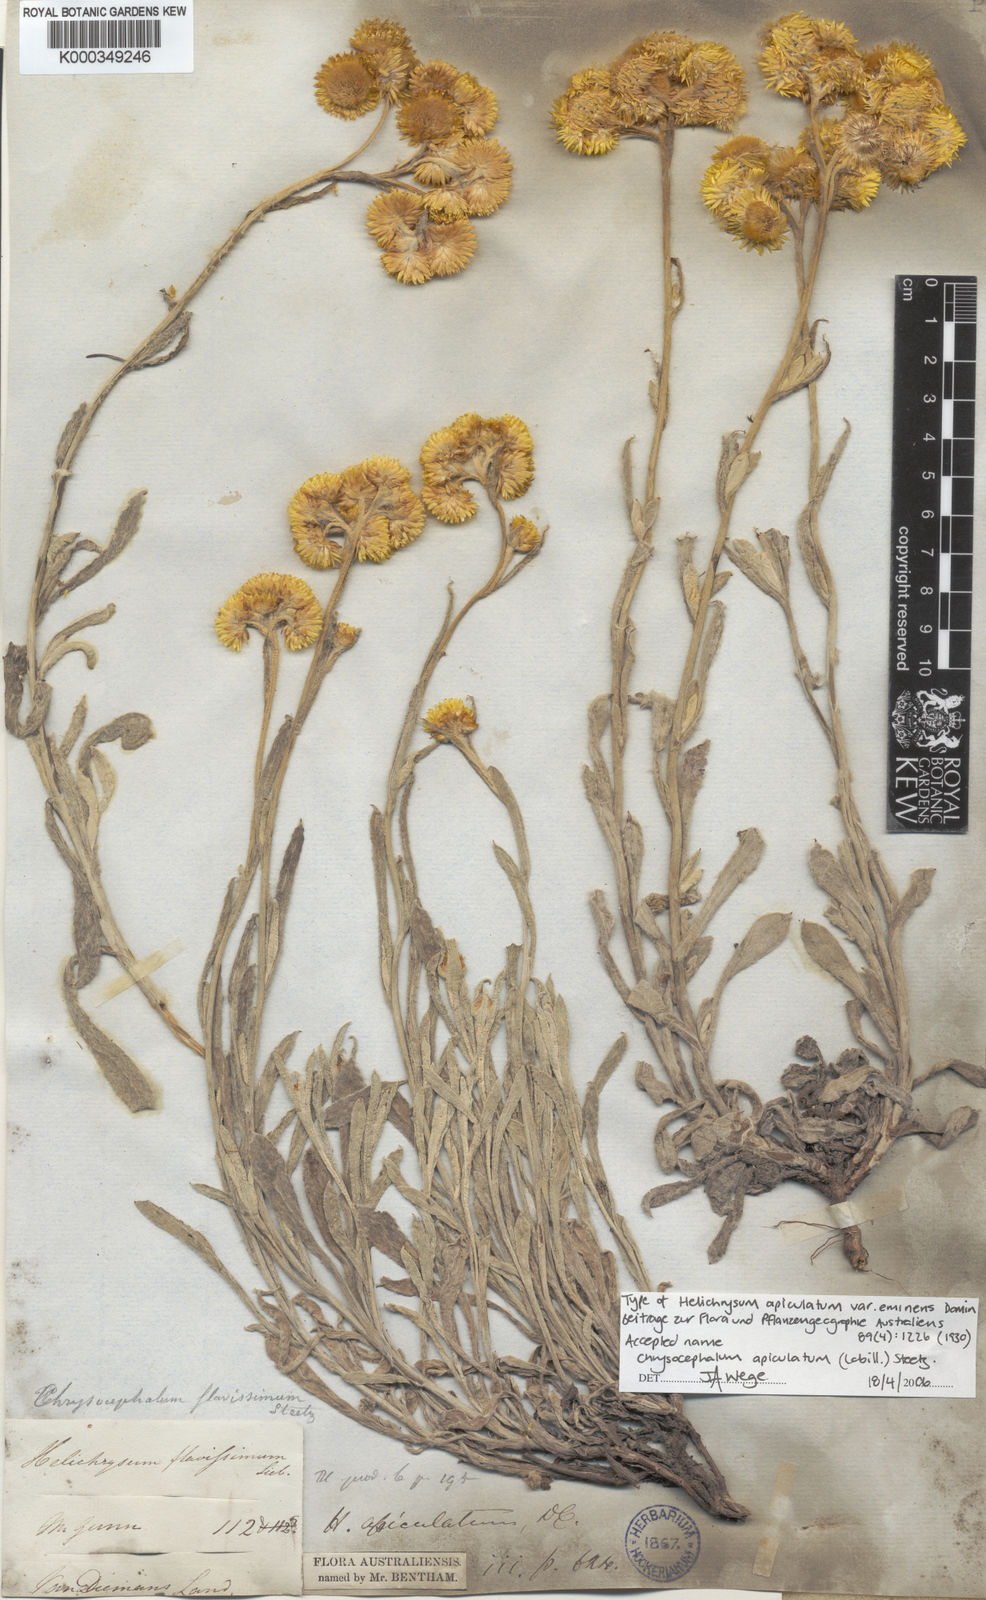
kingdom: Plantae
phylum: Tracheophyta
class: Magnoliopsida
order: Asterales
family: Asteraceae
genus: Chrysocephalum
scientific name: Chrysocephalum apiculatum
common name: Common everlasting
